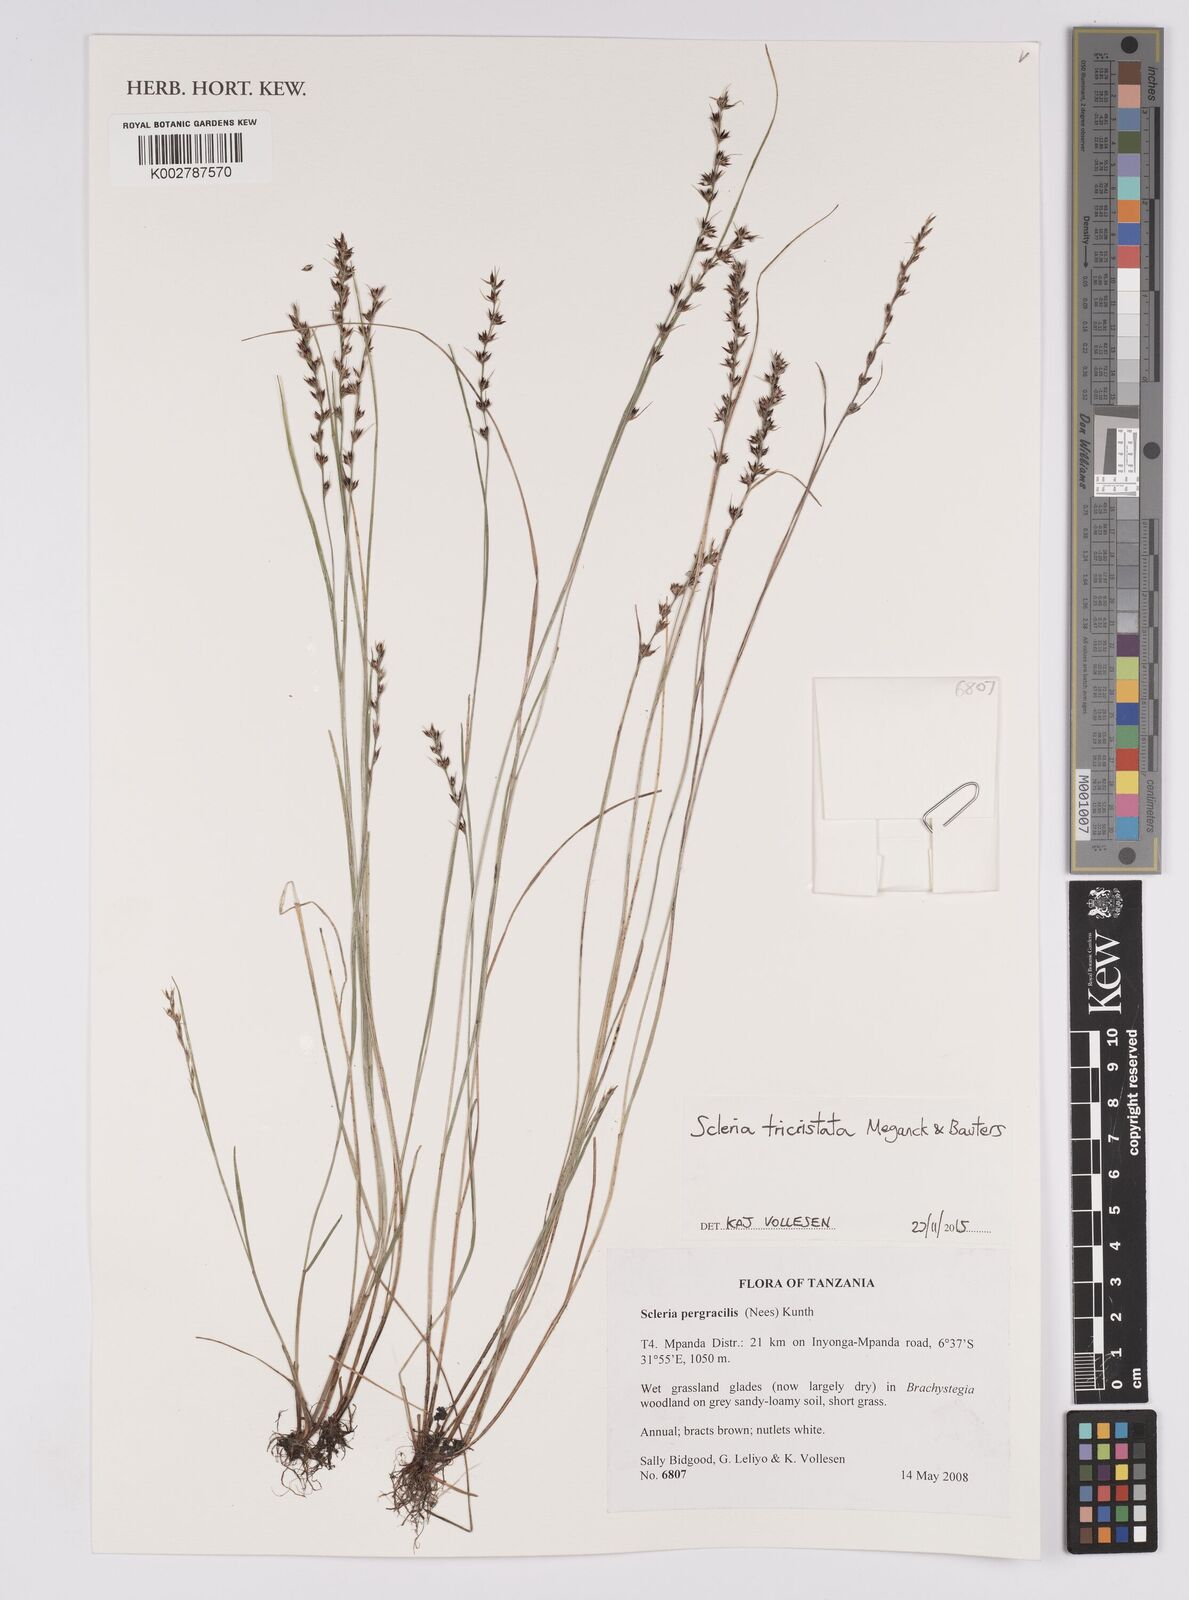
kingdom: Plantae
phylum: Tracheophyta
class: Liliopsida
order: Poales
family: Cyperaceae
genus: Scleria
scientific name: Scleria tricristata
